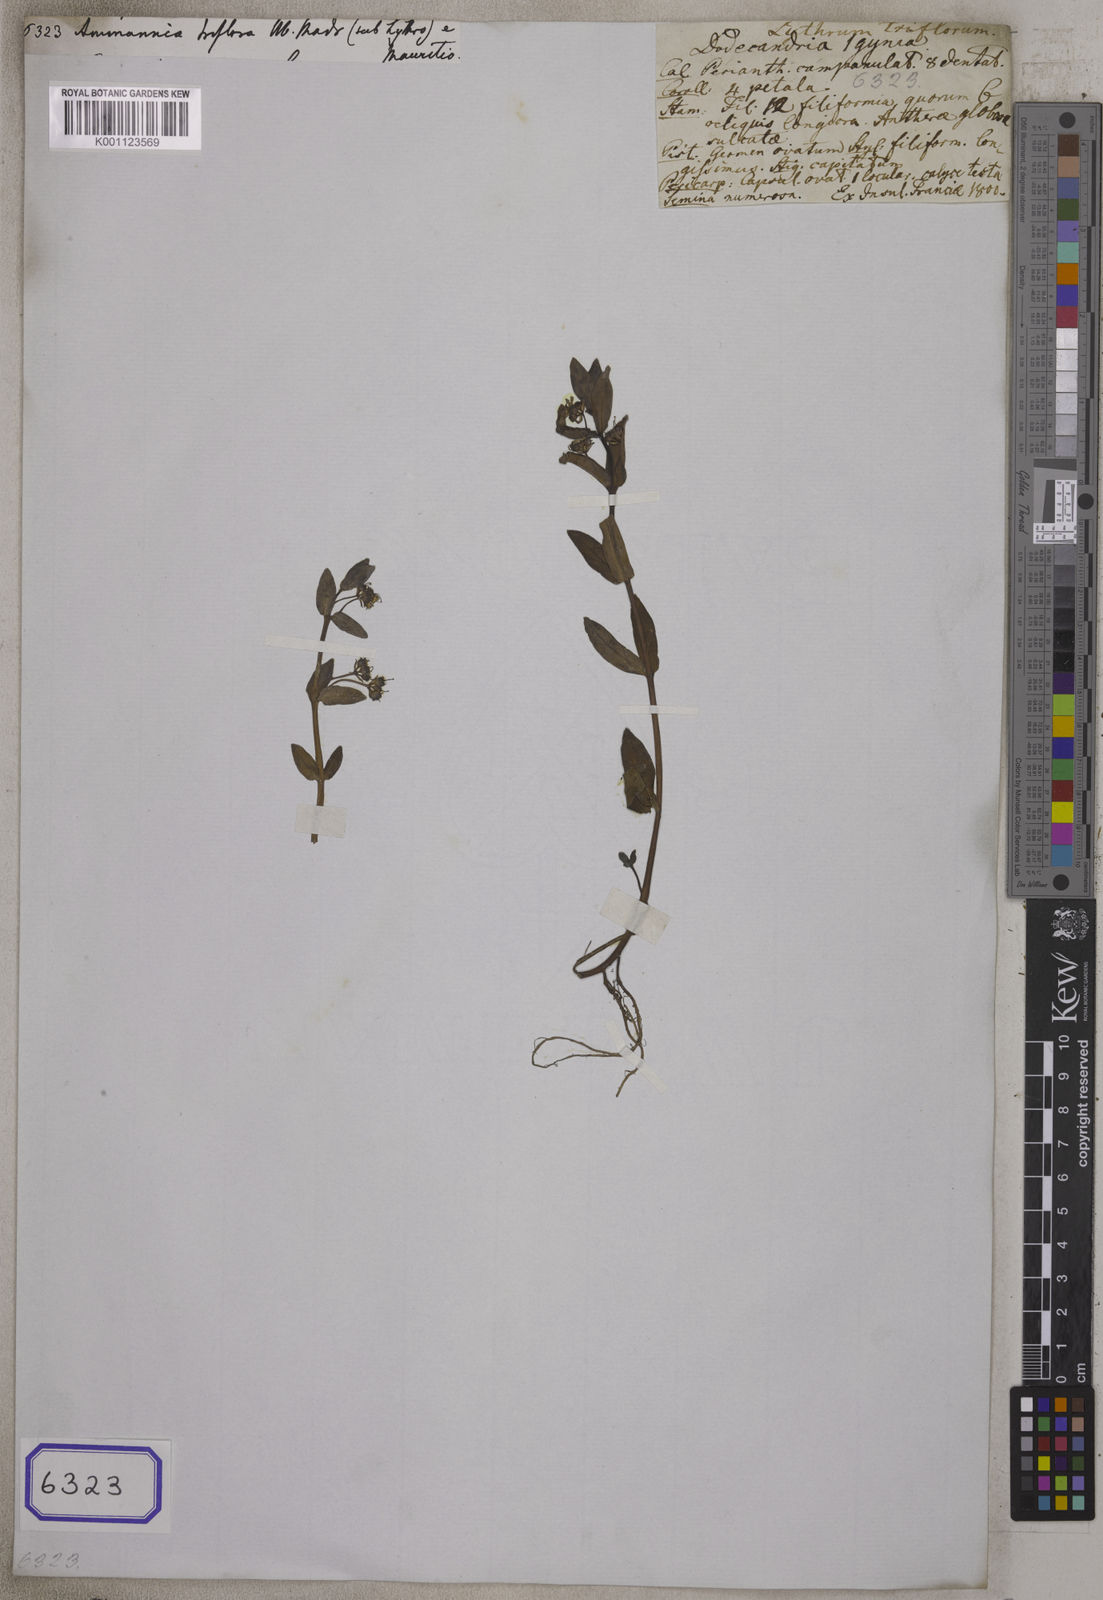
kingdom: Plantae
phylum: Tracheophyta
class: Magnoliopsida
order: Myrtales
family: Lythraceae
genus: Ammannia
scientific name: Ammannia capitellata
